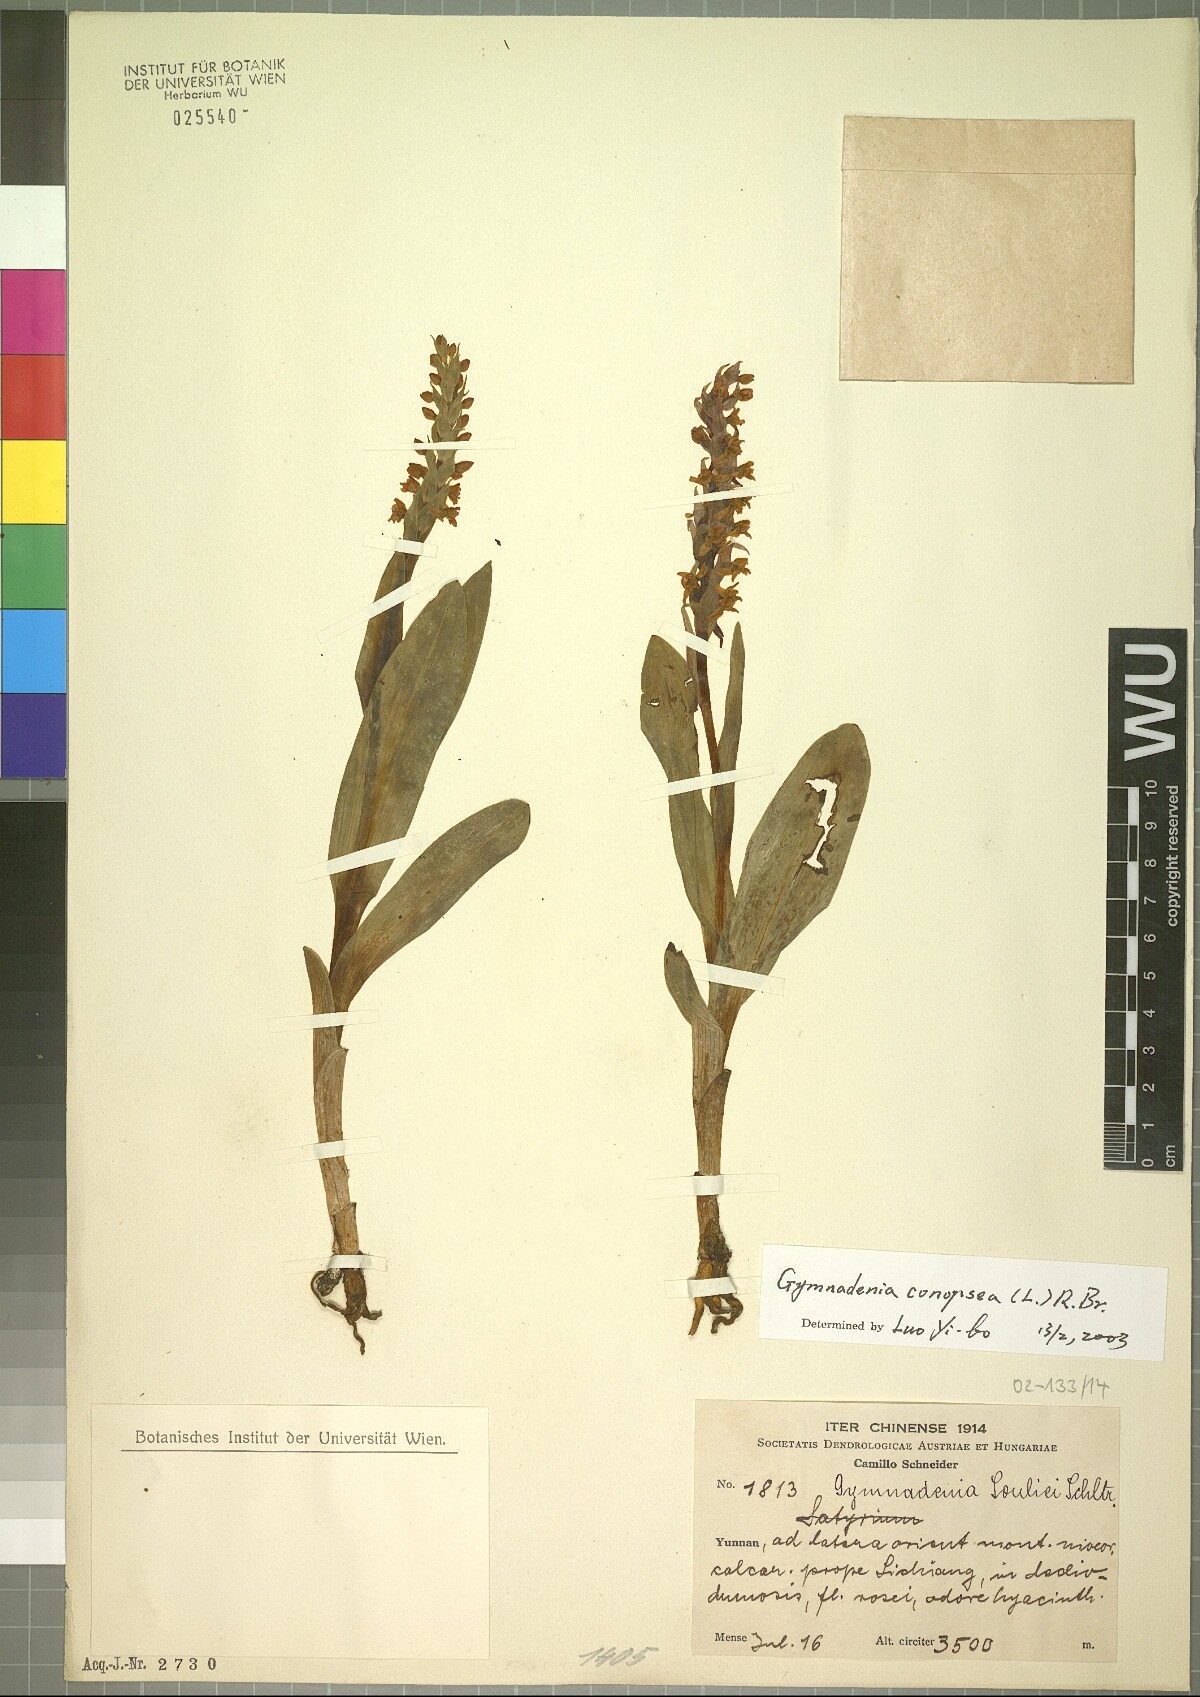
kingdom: Plantae
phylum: Tracheophyta
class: Liliopsida
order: Asparagales
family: Orchidaceae
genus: Gymnadenia
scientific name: Gymnadenia conopsea
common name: Fragrant orchid
